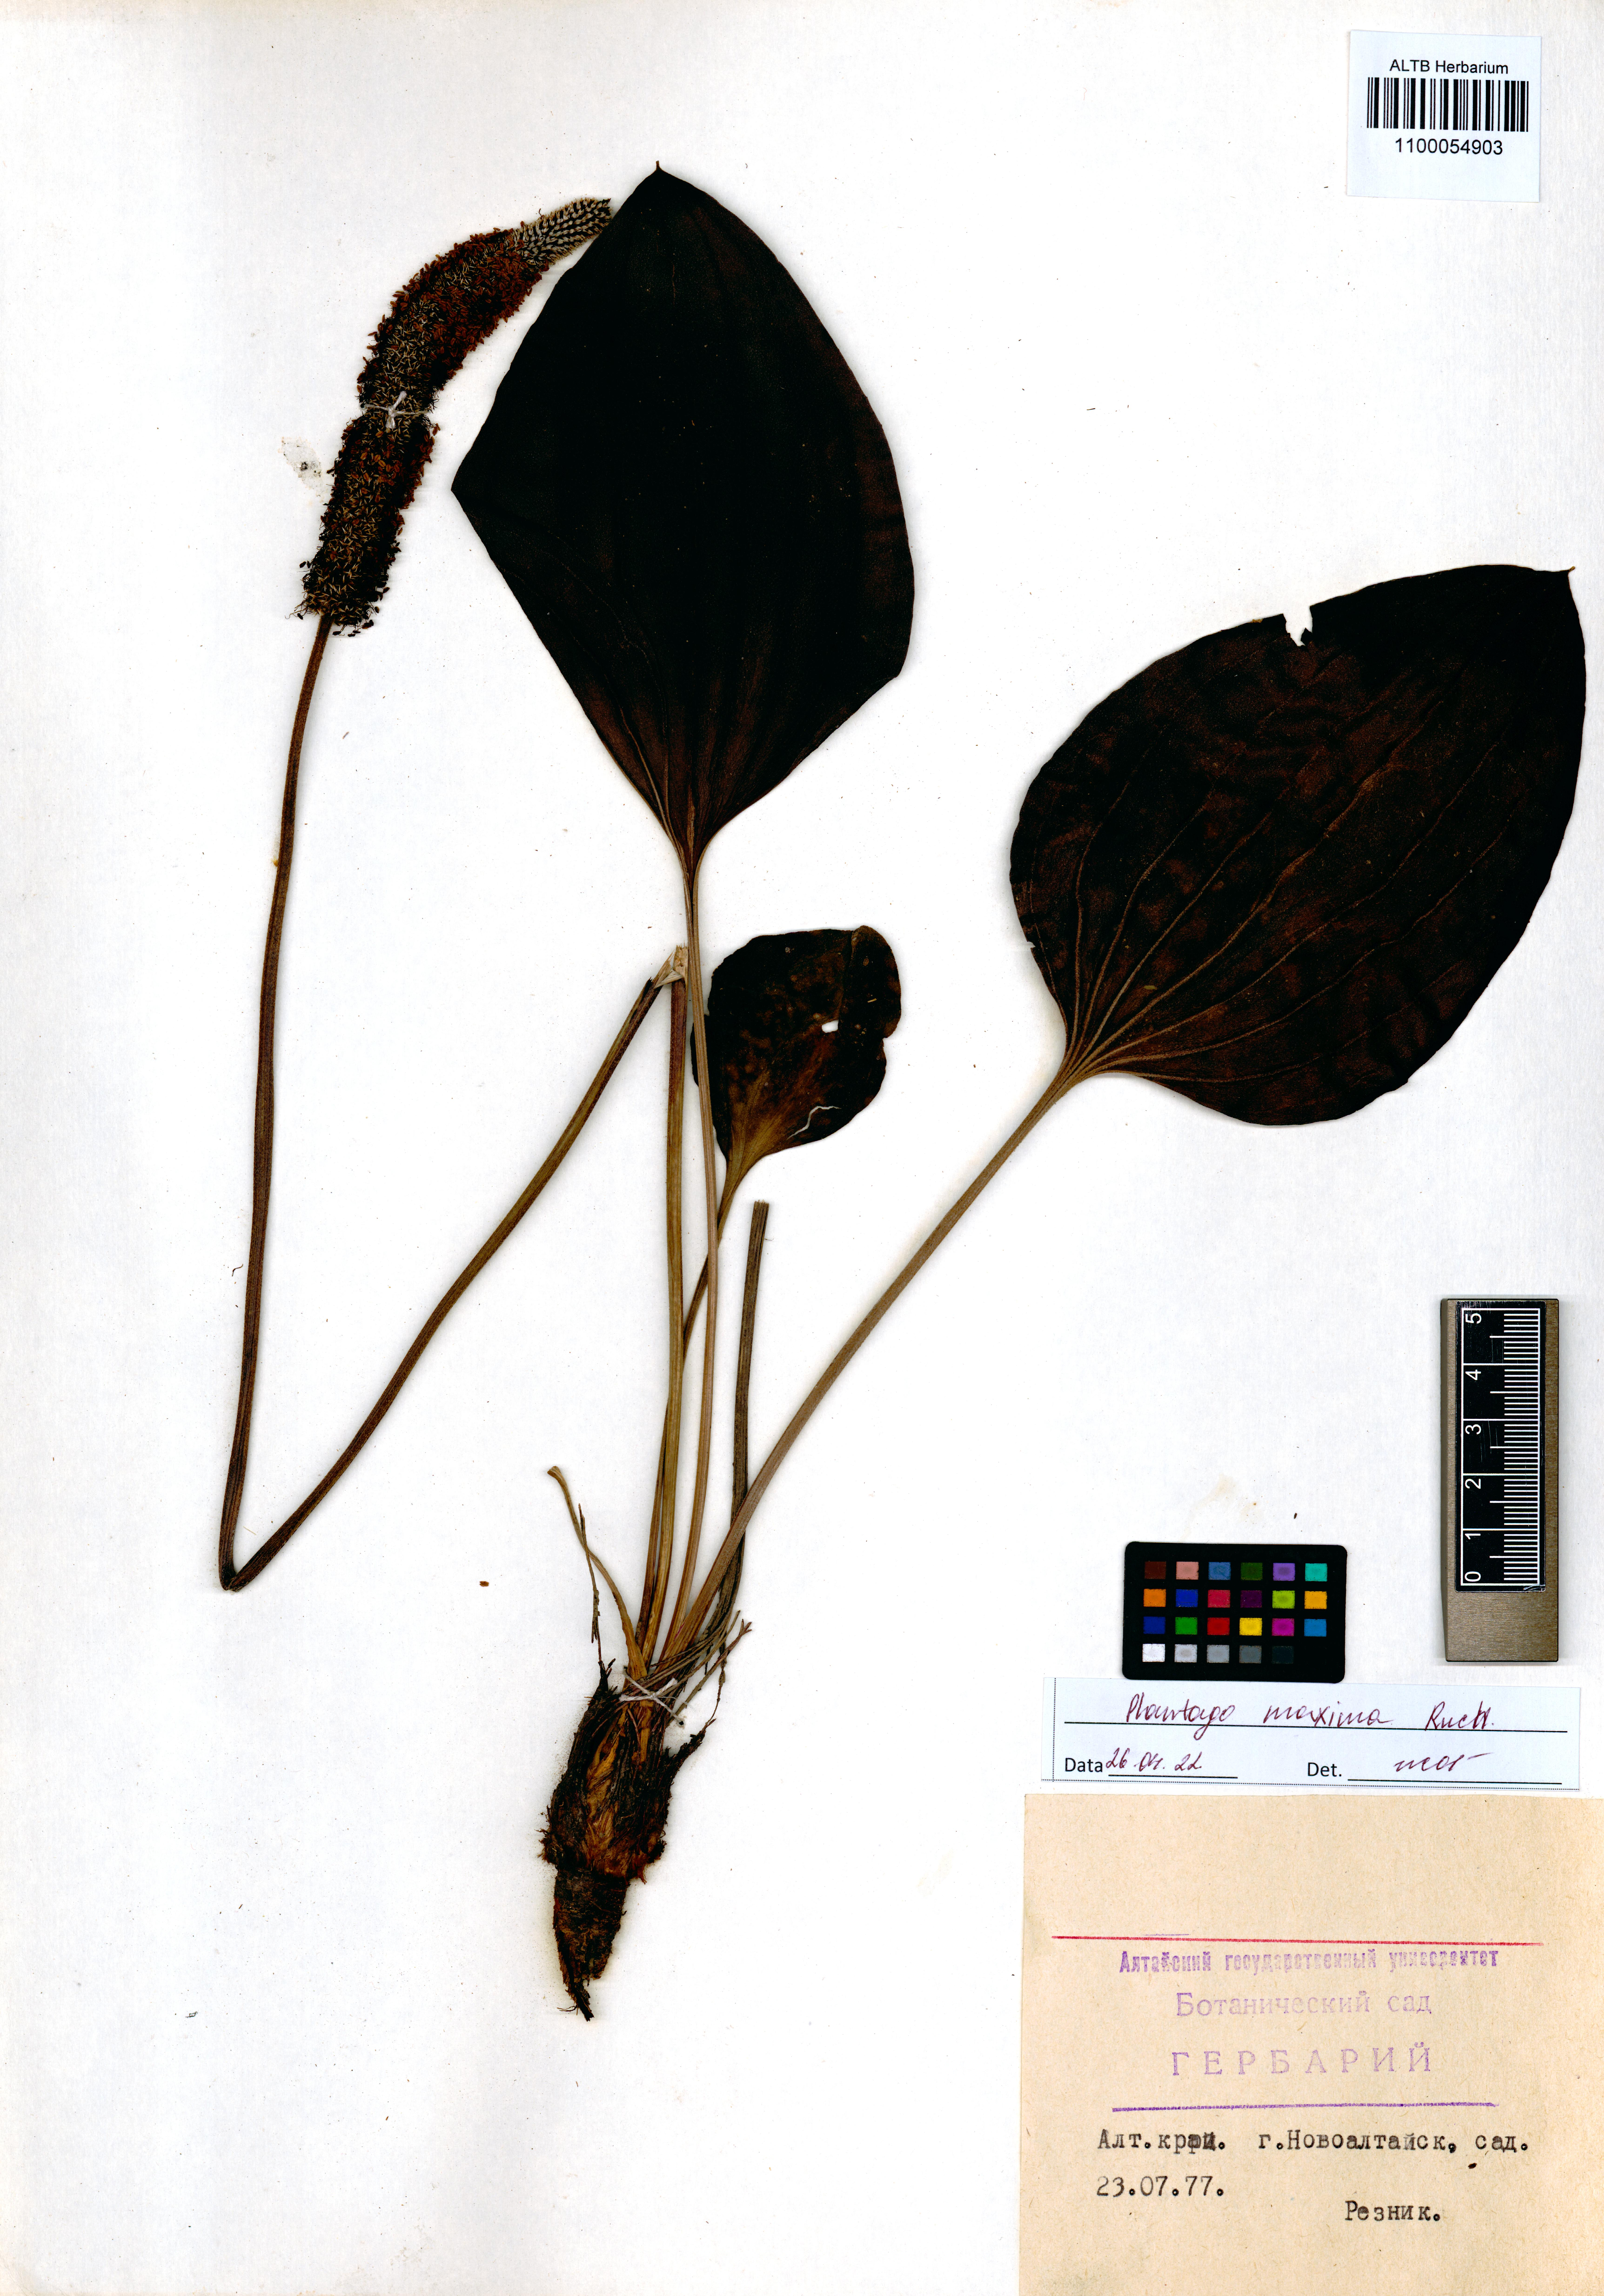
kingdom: Plantae
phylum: Tracheophyta
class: Magnoliopsida
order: Lamiales
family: Plantaginaceae
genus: Plantago
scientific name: Plantago maxima
